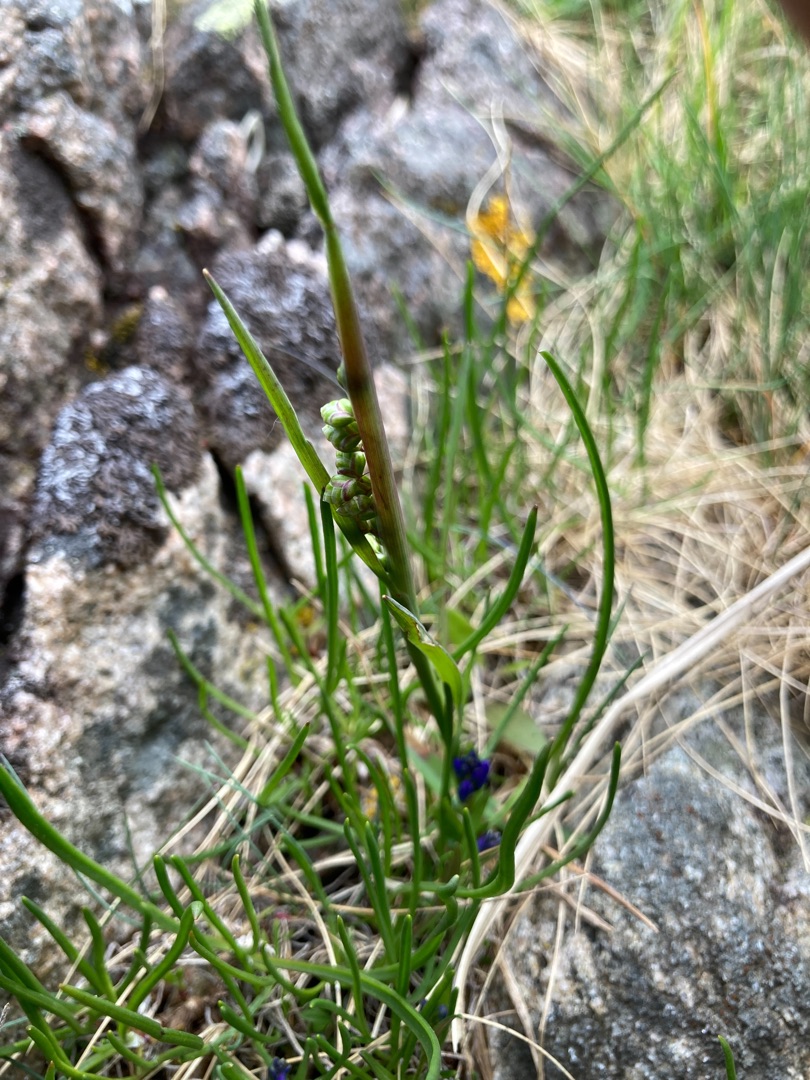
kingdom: Plantae
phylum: Tracheophyta
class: Liliopsida
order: Poales
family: Poaceae
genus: Briza
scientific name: Briza media
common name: Hjertegræs
